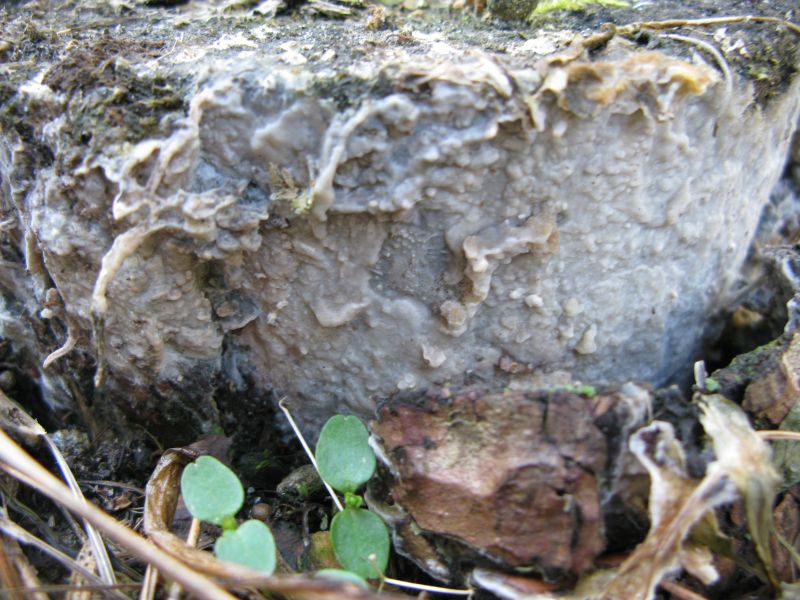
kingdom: Fungi
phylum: Basidiomycota
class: Agaricomycetes
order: Polyporales
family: Phanerochaetaceae
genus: Phlebiopsis
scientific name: Phlebiopsis gigantea
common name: kæmpebarksvamp
